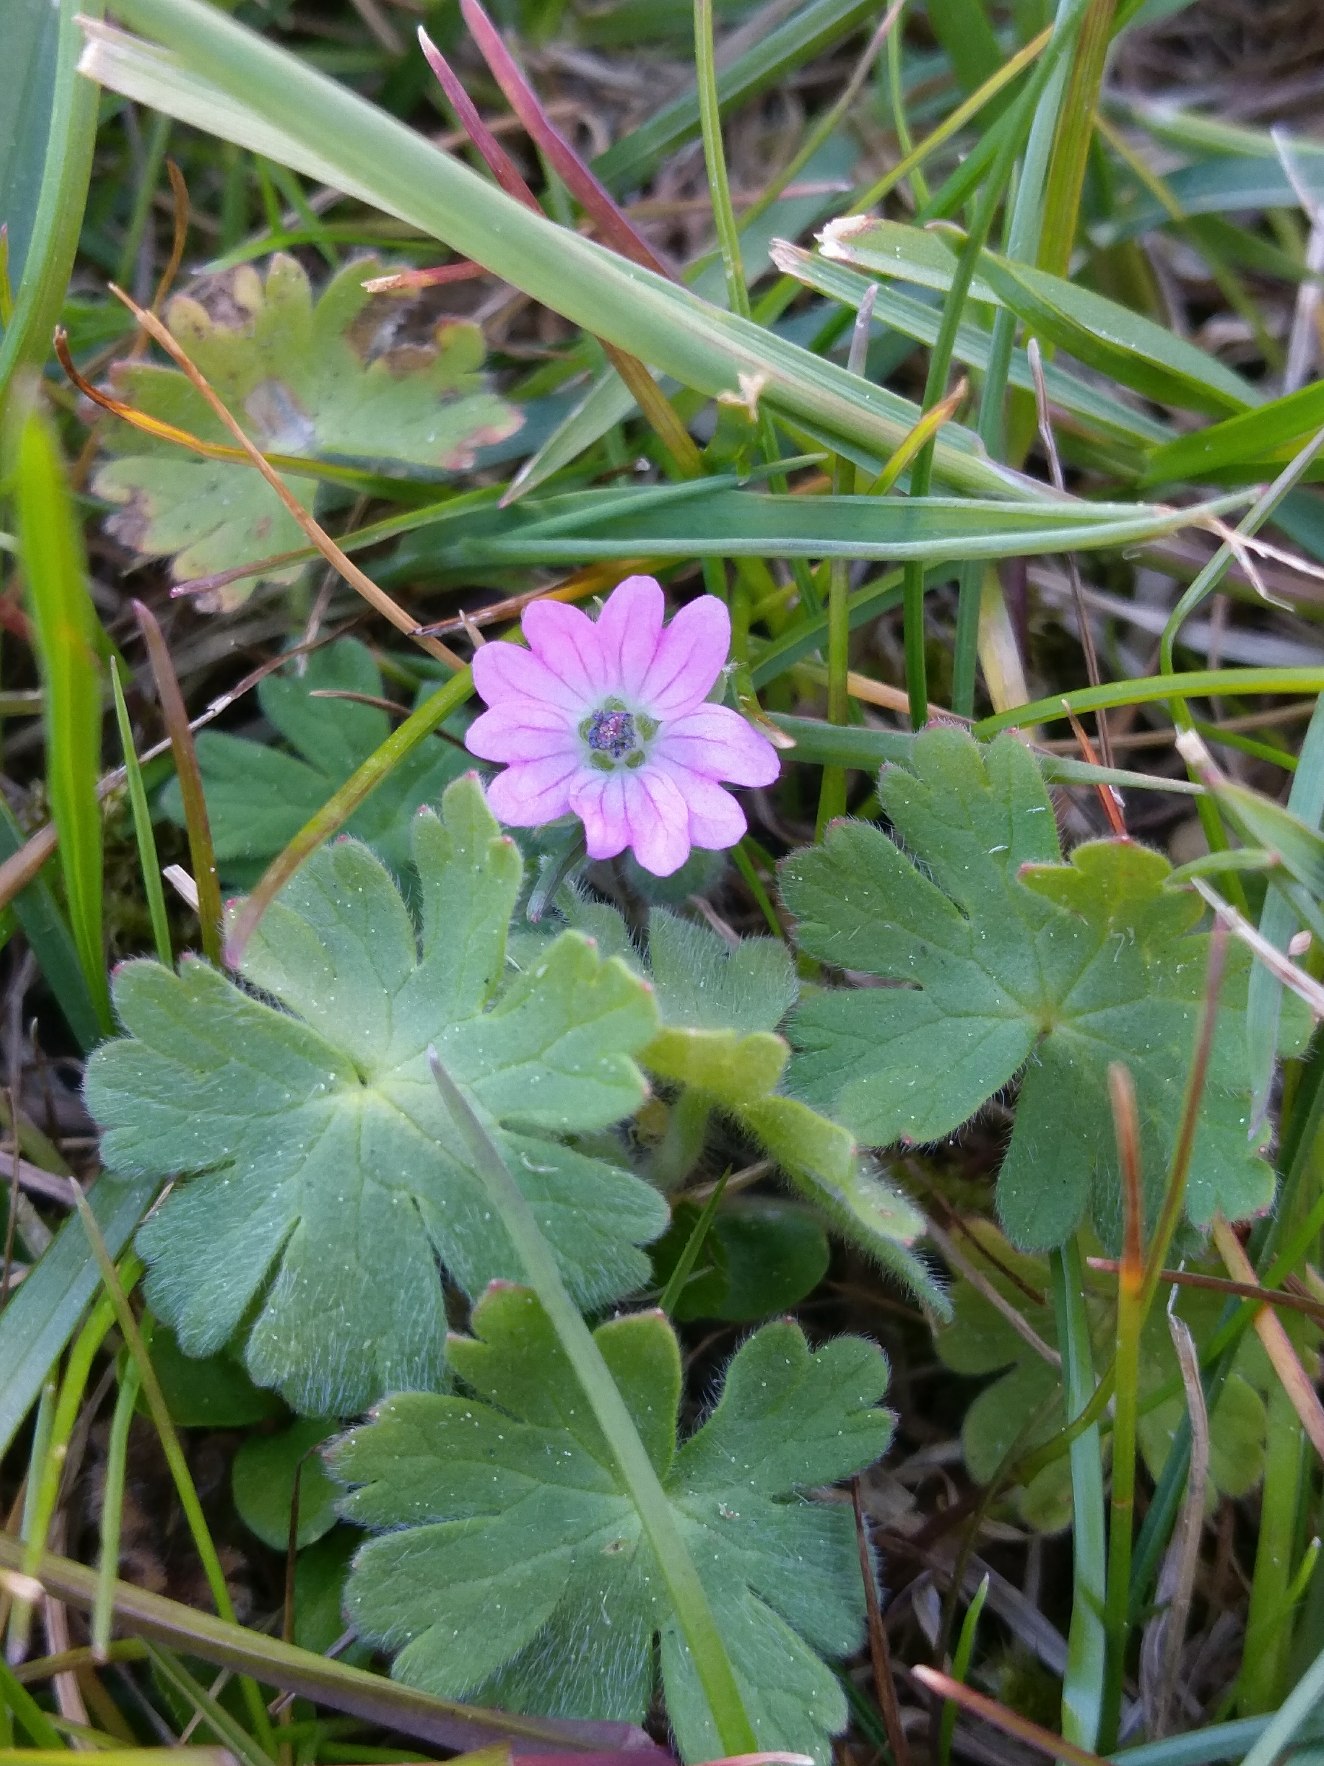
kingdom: Plantae
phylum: Tracheophyta
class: Magnoliopsida
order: Geraniales
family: Geraniaceae
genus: Geranium
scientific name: Geranium molle
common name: Blød storkenæb
